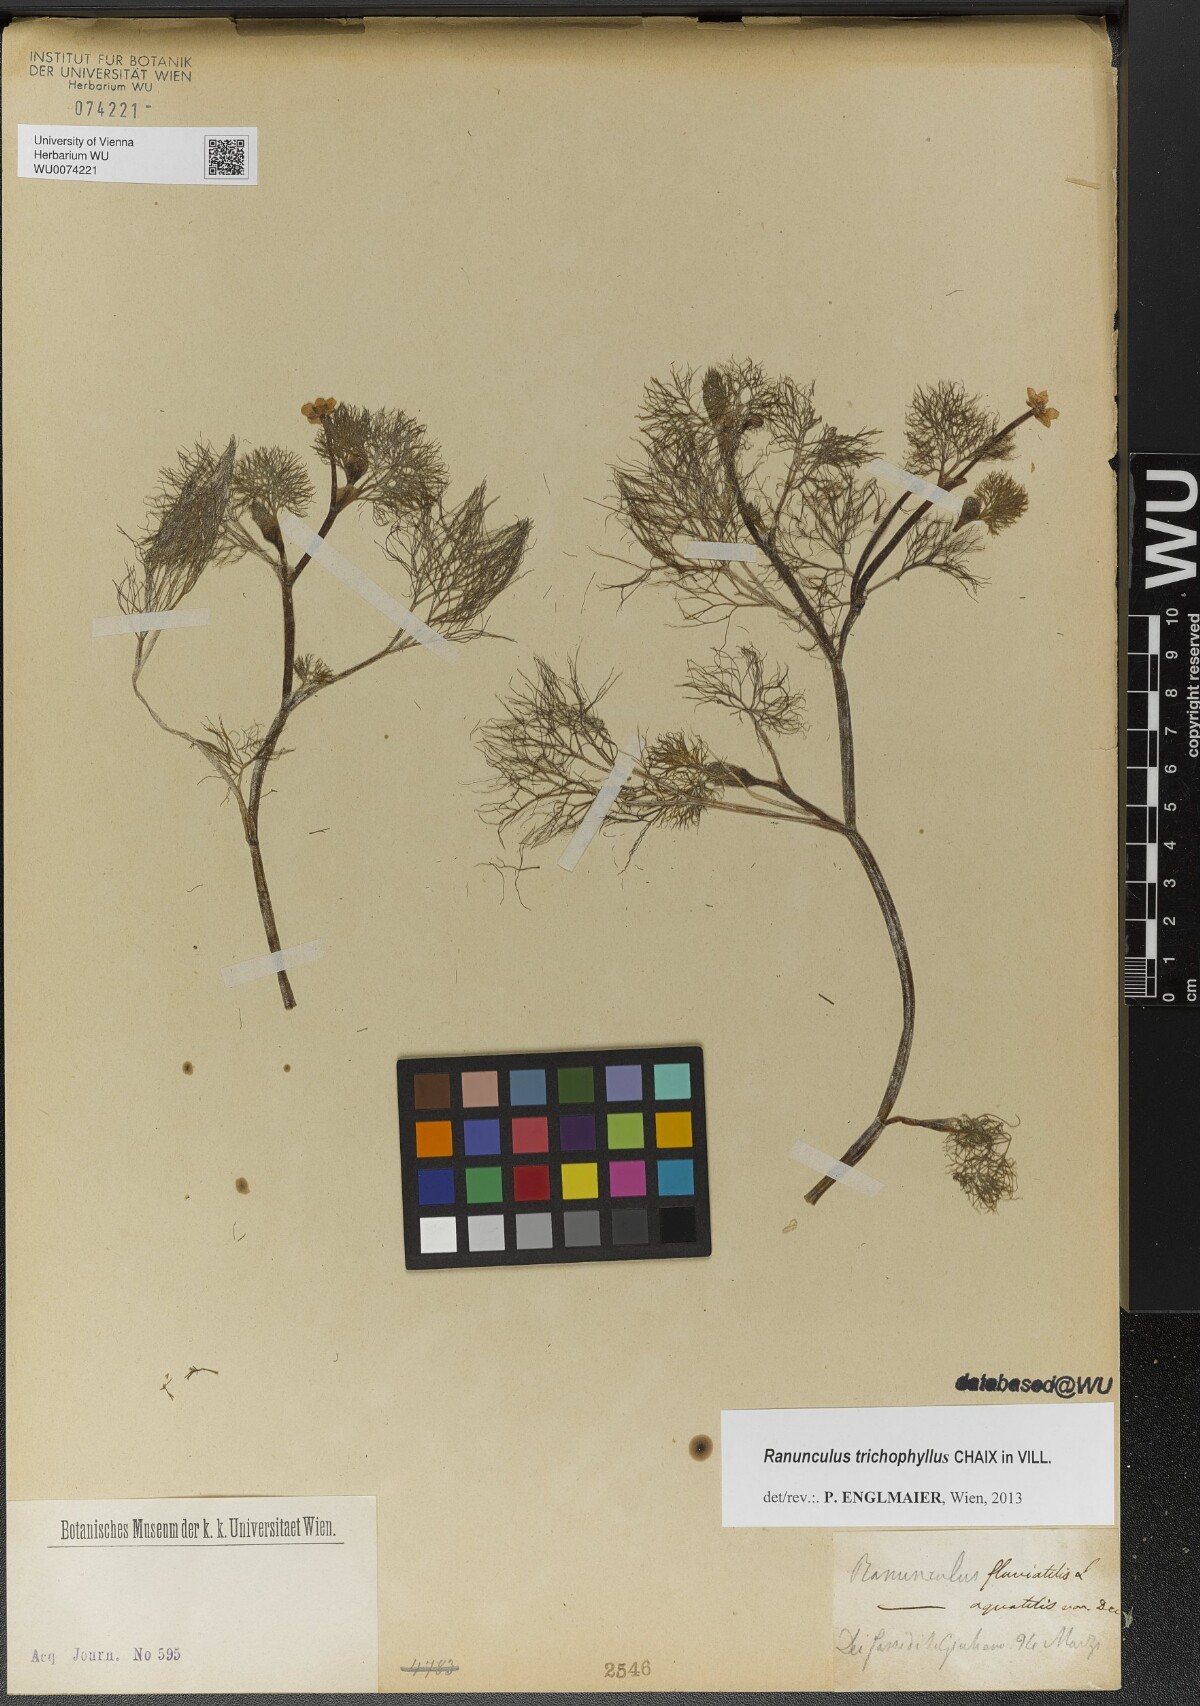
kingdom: Plantae
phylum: Tracheophyta
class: Magnoliopsida
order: Ranunculales
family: Ranunculaceae
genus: Ranunculus
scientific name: Ranunculus trichophyllus
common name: Thread-leaved water-crowfoot
